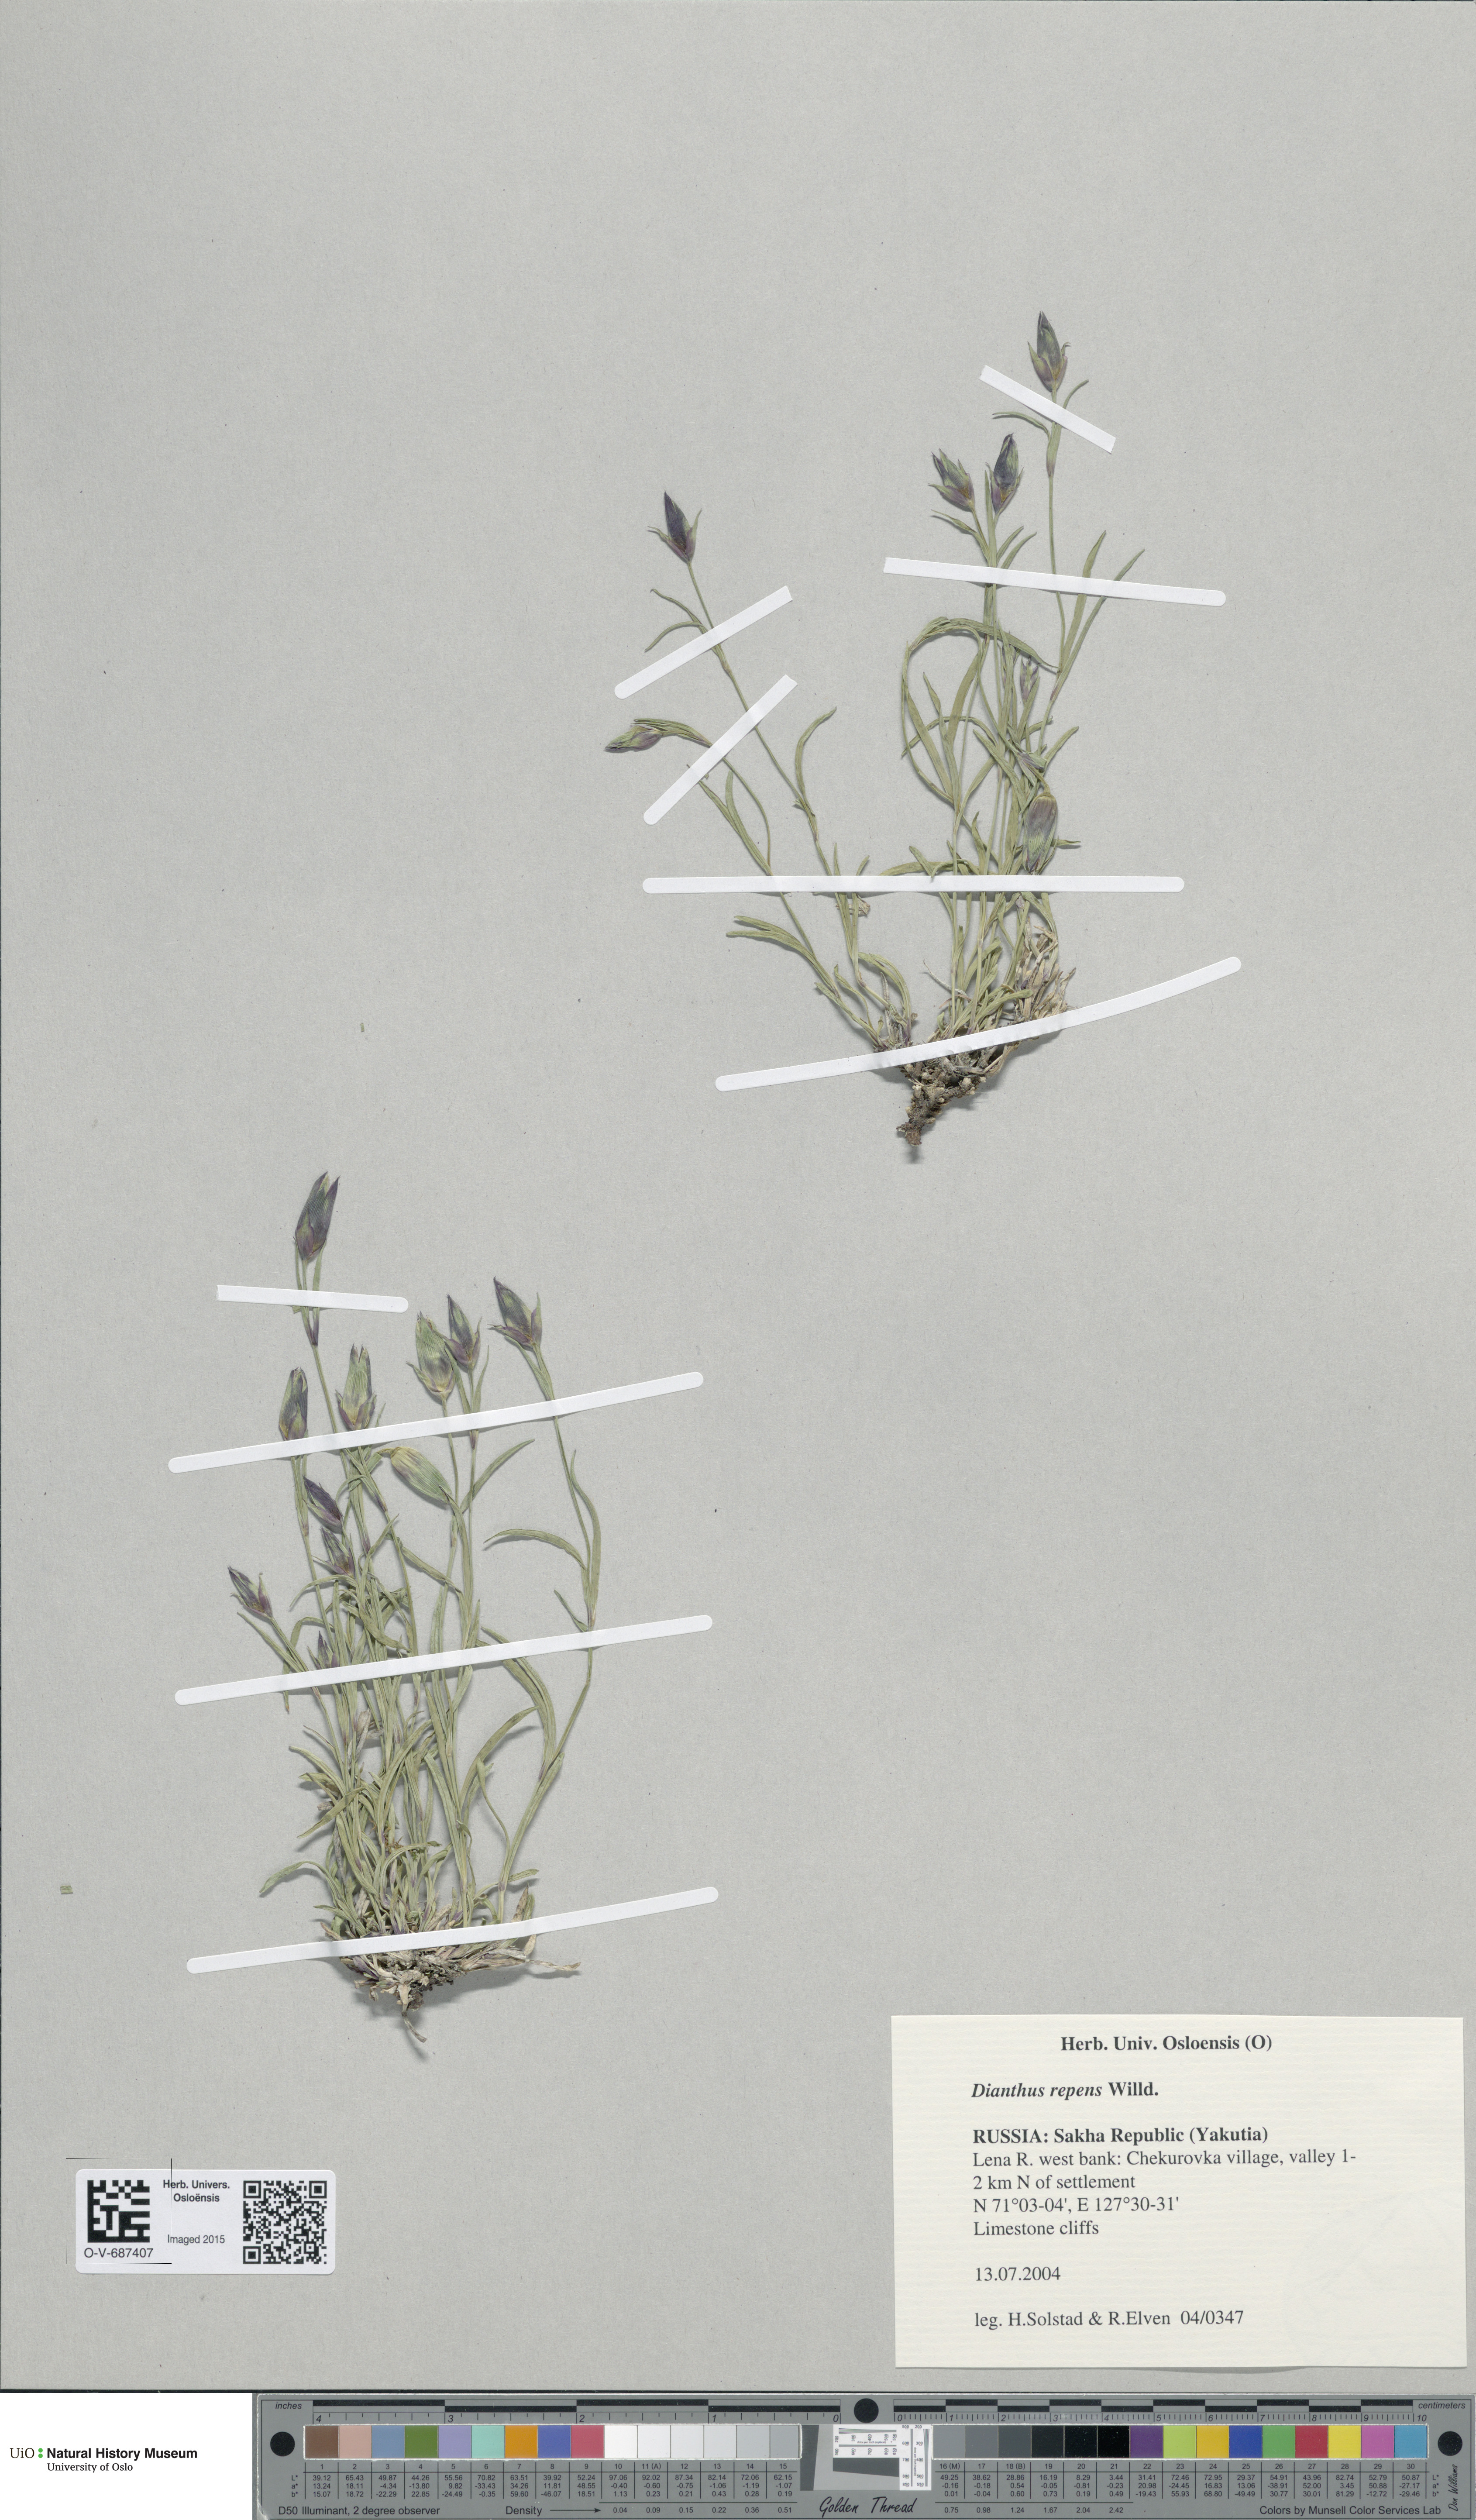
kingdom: Plantae
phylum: Tracheophyta
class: Magnoliopsida
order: Caryophyllales
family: Caryophyllaceae
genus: Dianthus
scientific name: Dianthus repens
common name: Northern pink
